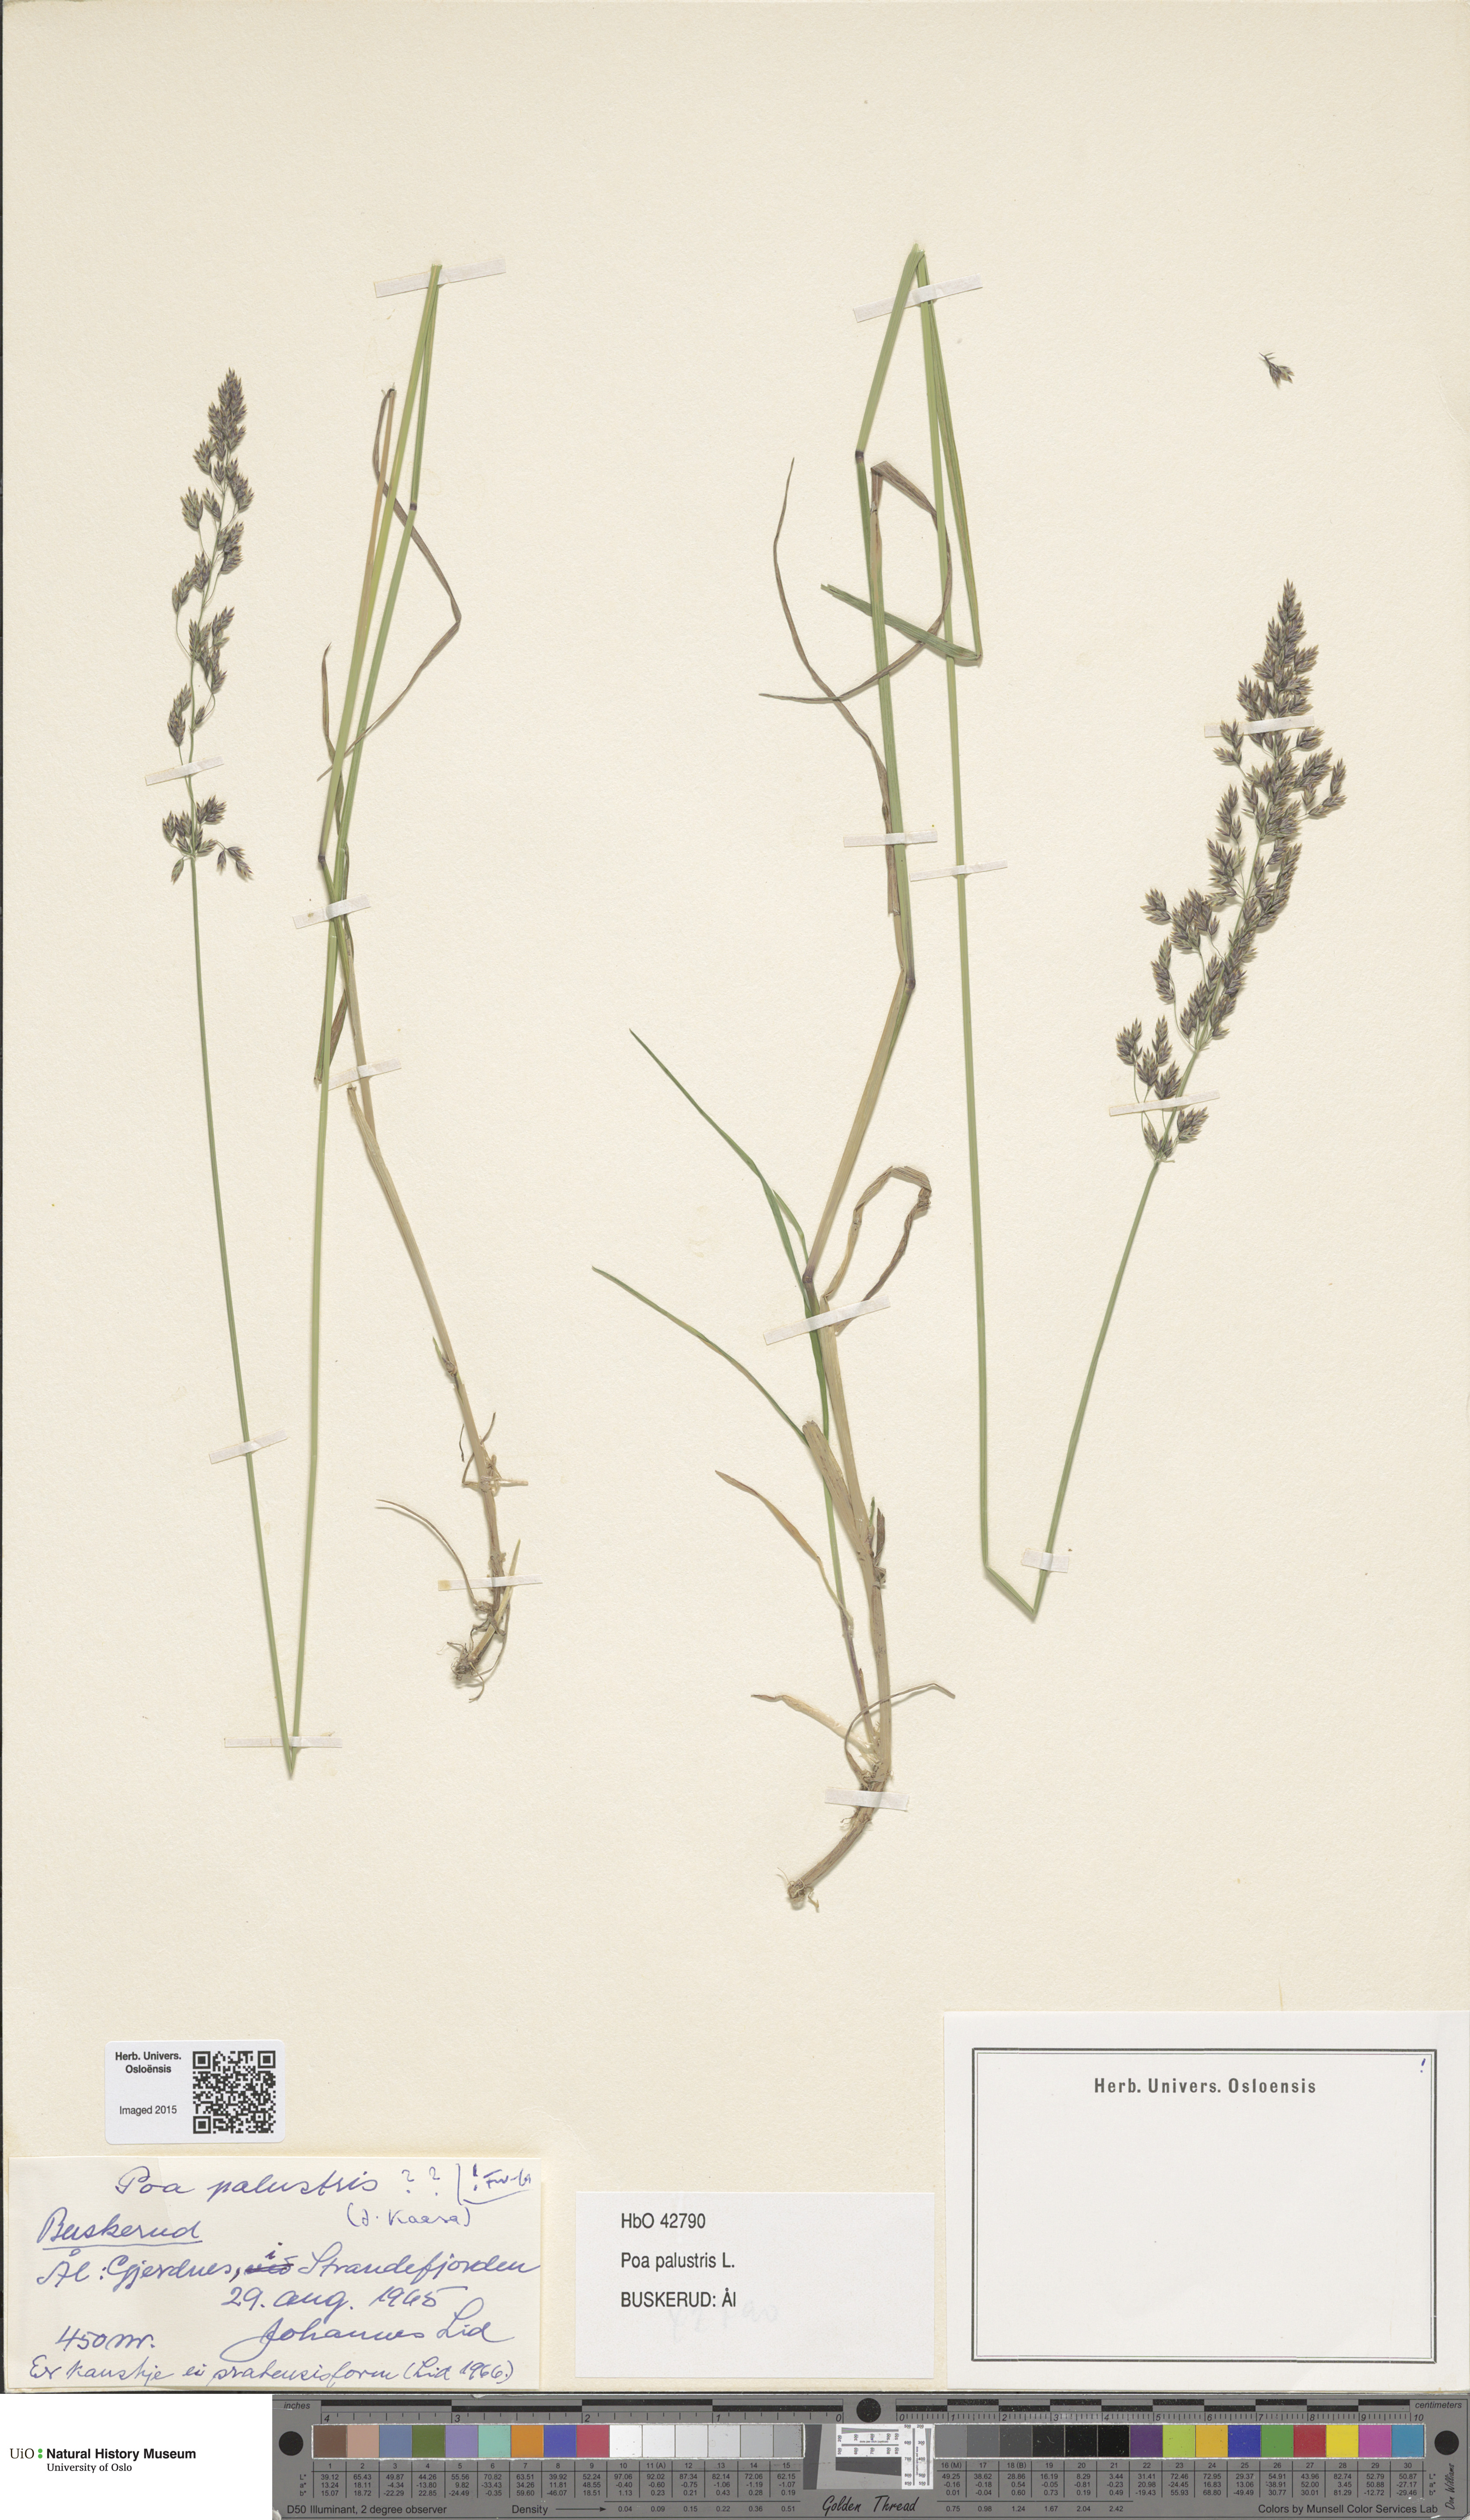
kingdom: Plantae
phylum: Tracheophyta
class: Liliopsida
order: Poales
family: Poaceae
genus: Poa
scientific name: Poa palustris
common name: Swamp meadow-grass
